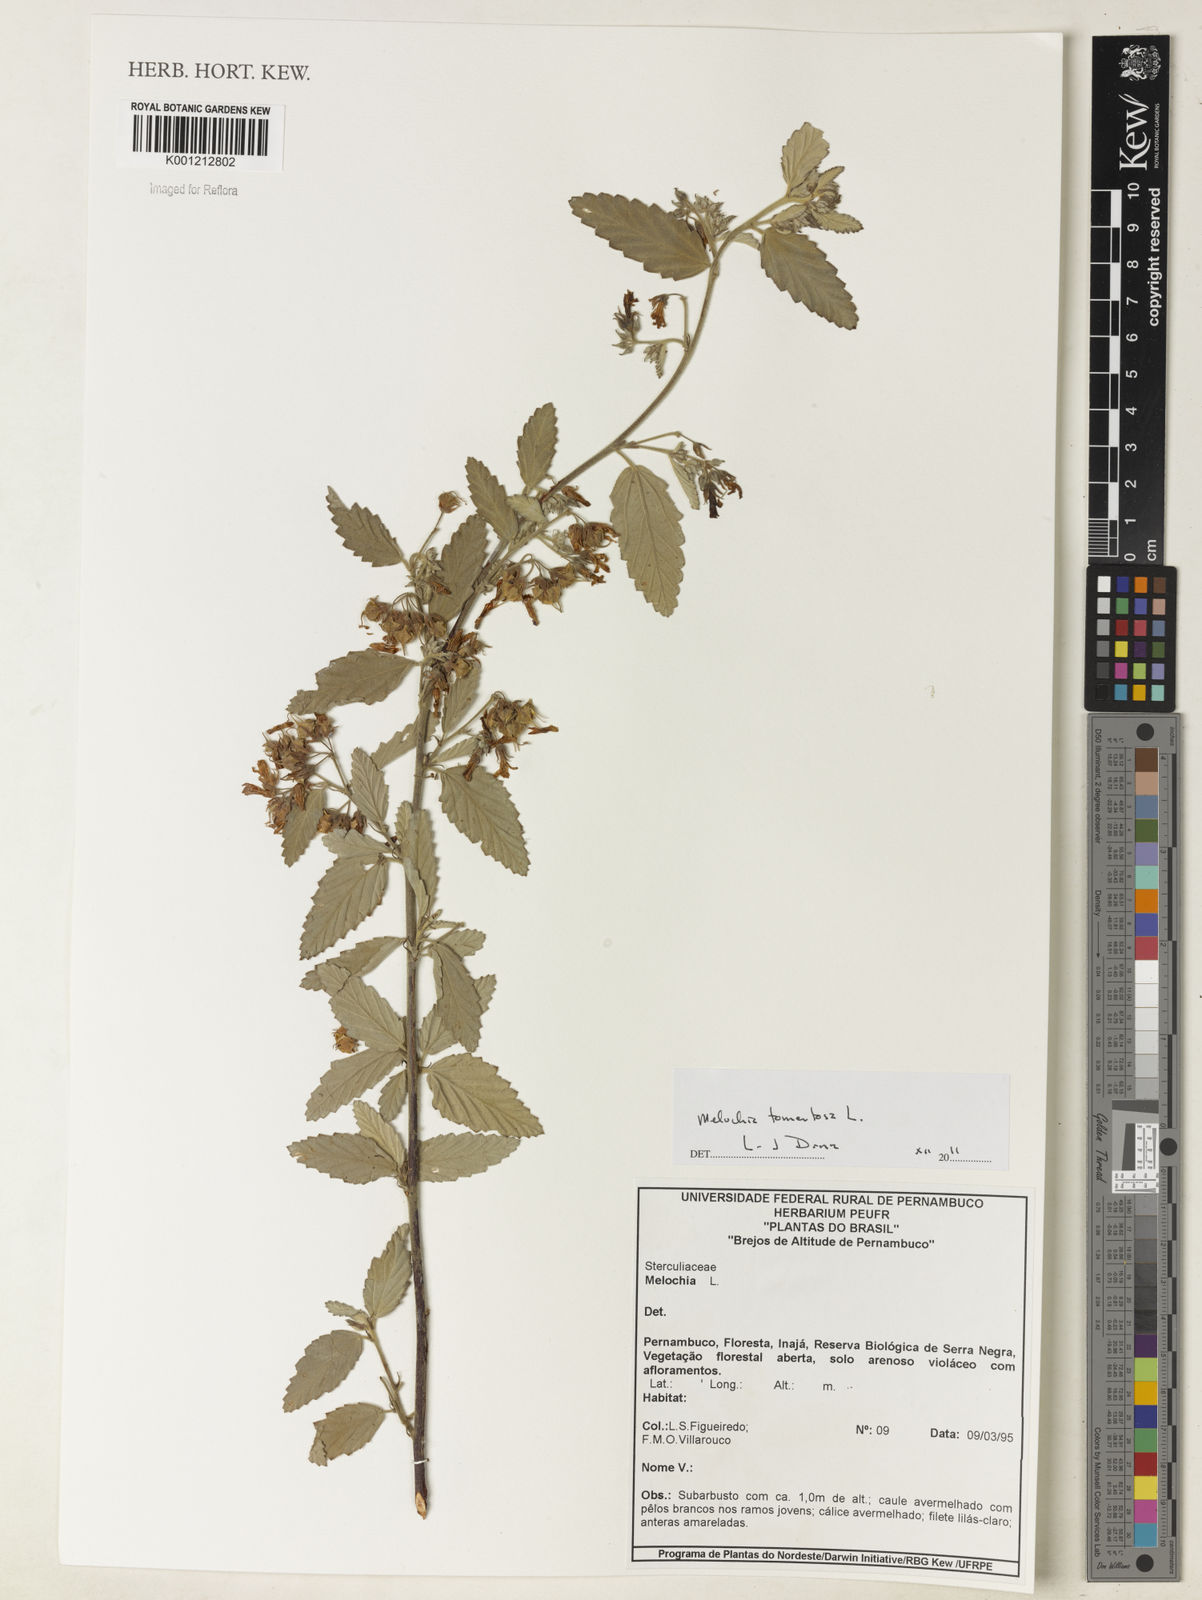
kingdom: Plantae
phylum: Tracheophyta
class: Magnoliopsida
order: Malvales
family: Malvaceae
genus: Melochia
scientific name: Melochia tomentosa
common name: Black torch
